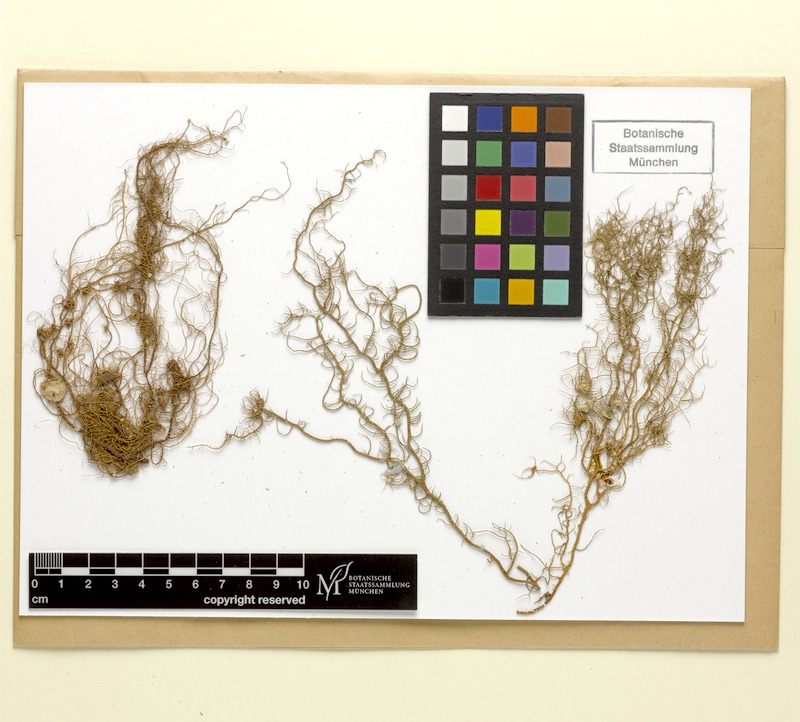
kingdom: Fungi
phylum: Ascomycota
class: Lecanoromycetes
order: Lecanorales
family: Parmeliaceae
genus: Usnea
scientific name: Usnea ceratina
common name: Warty beard lichen
